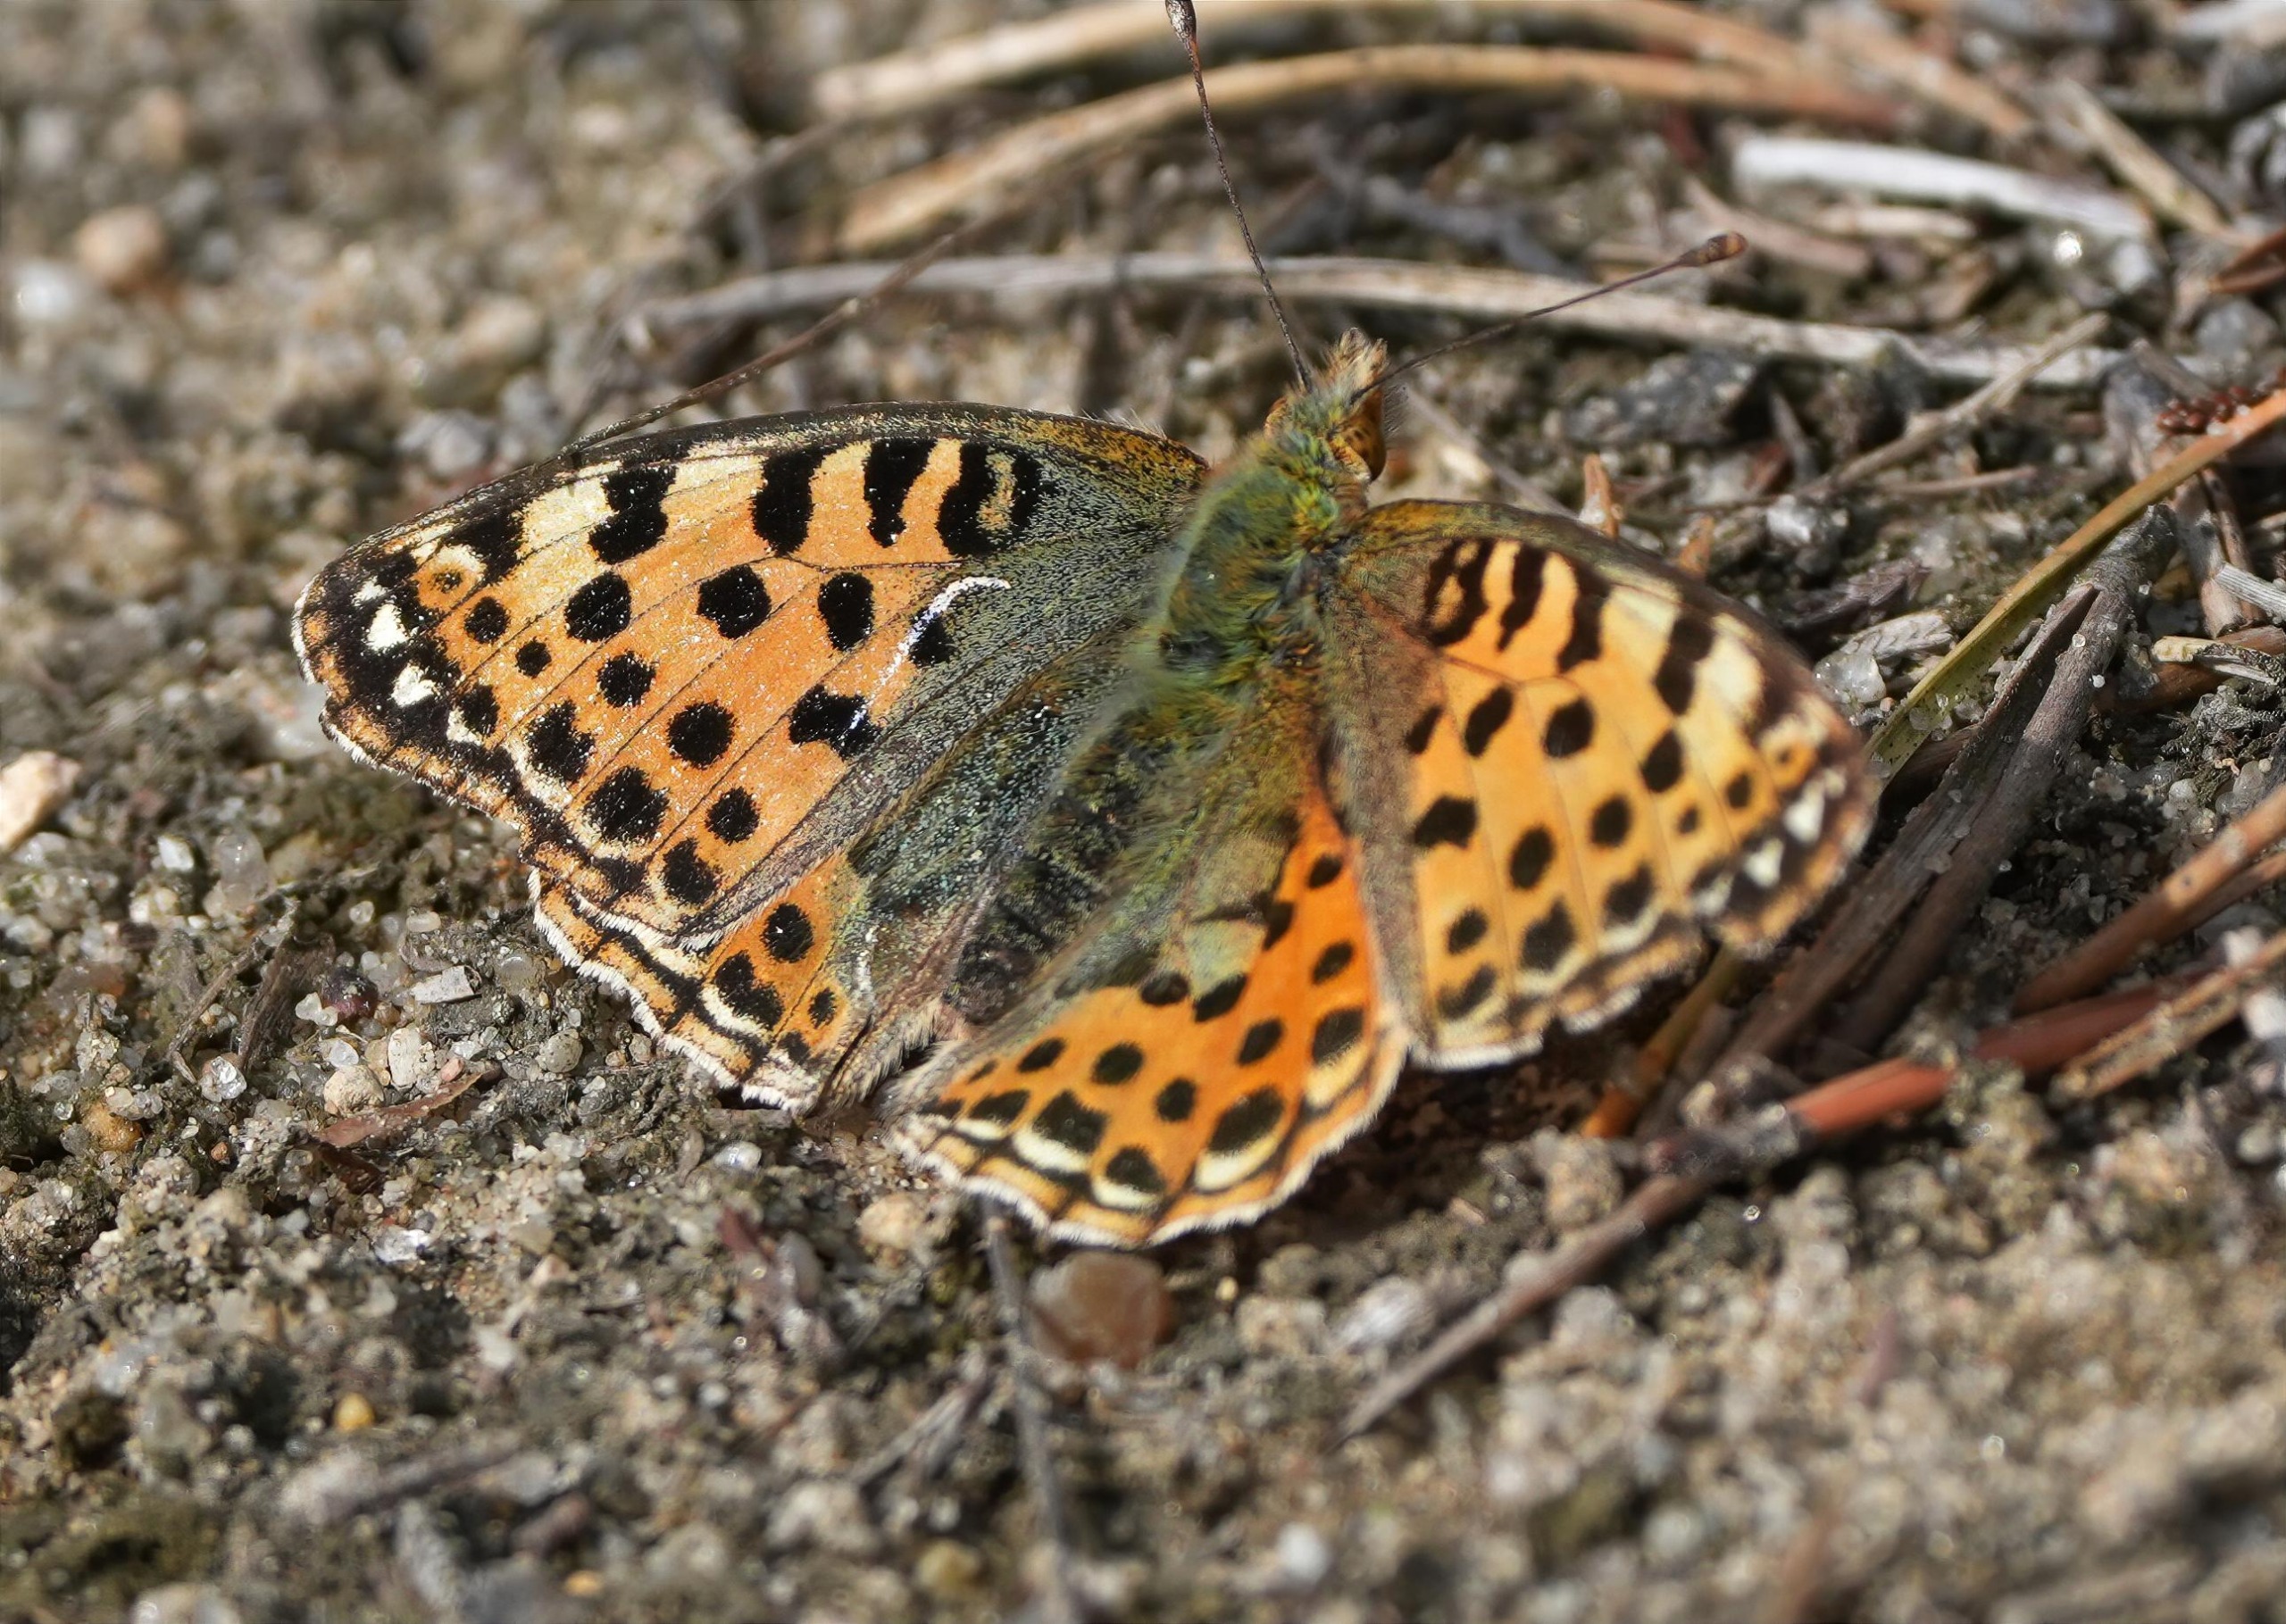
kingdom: Animalia
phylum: Arthropoda
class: Insecta
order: Lepidoptera
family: Nymphalidae
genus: Issoria
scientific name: Issoria lathonia
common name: Storplettet perlemorsommerfugl
